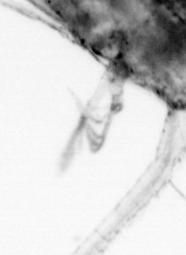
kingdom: Animalia
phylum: Arthropoda
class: Copepoda
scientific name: Copepoda
